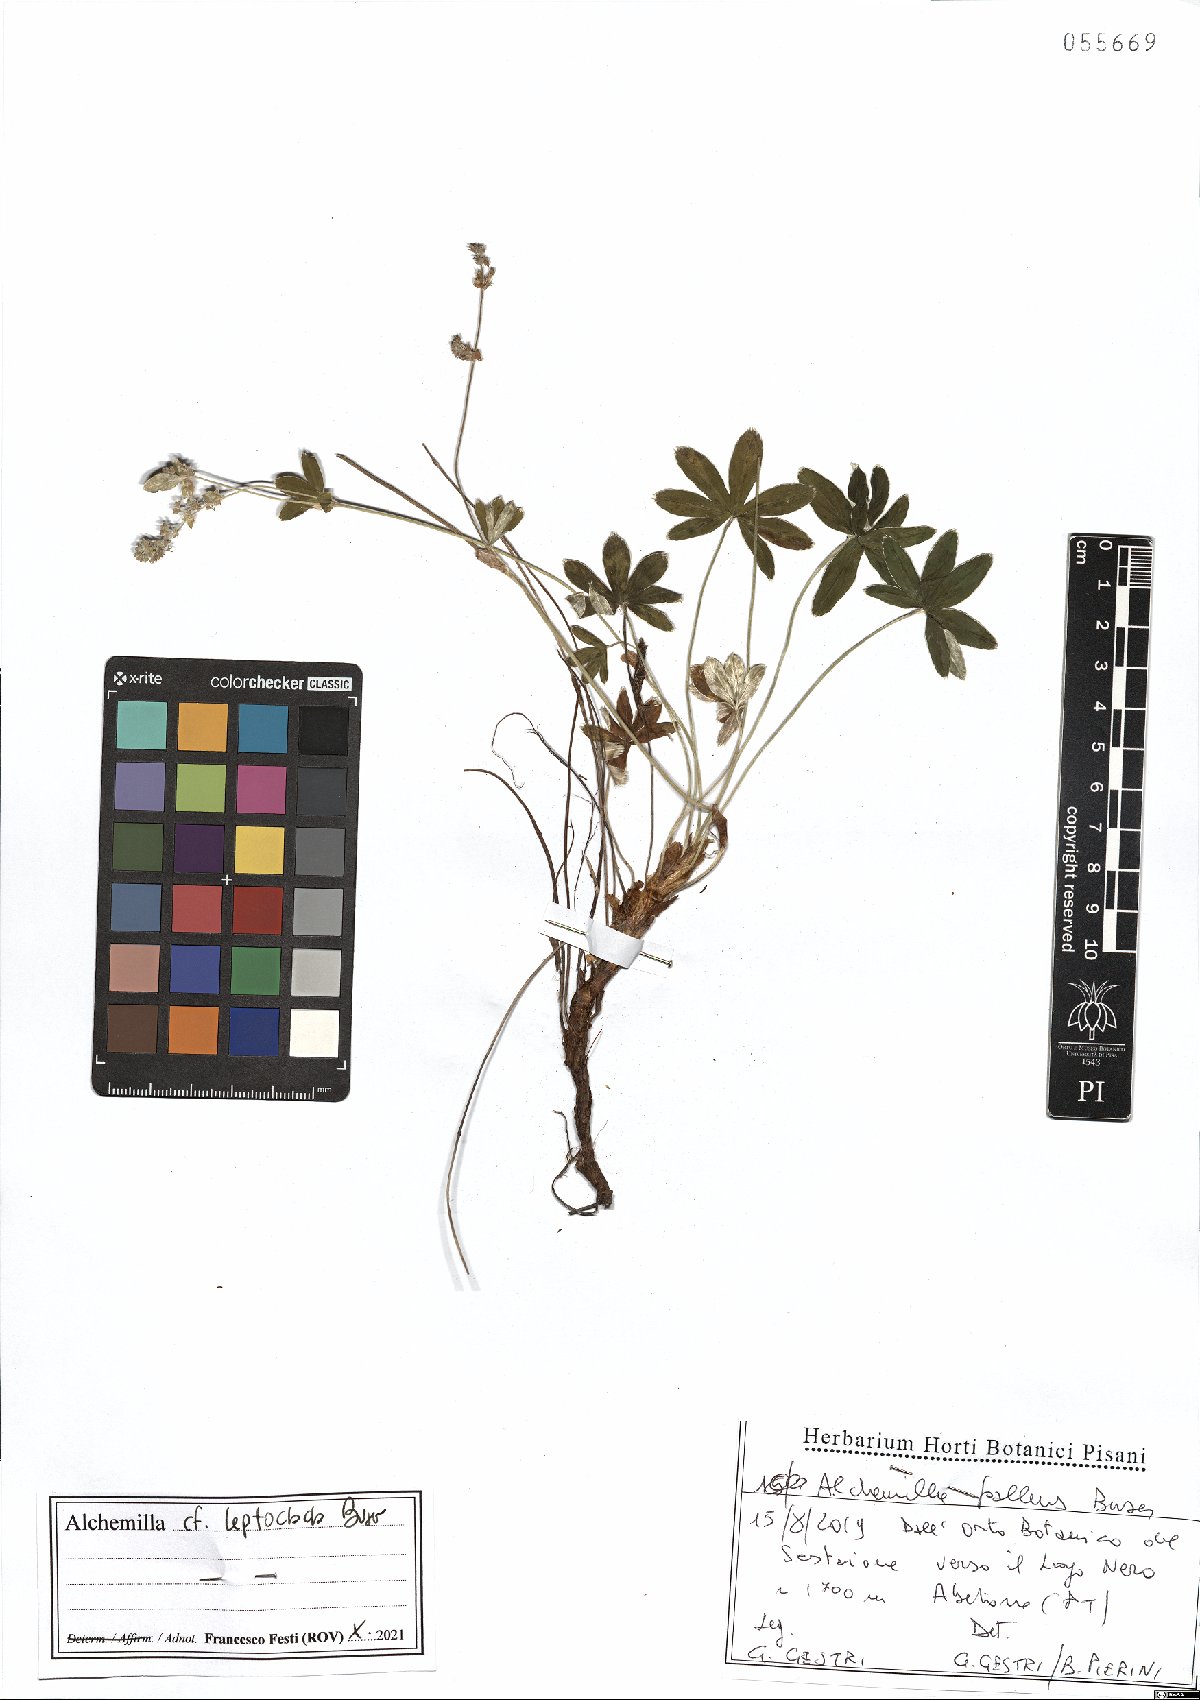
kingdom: Plantae
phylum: Tracheophyta
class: Magnoliopsida
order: Rosales
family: Rosaceae
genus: Alchemilla
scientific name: Alchemilla leptoclada
